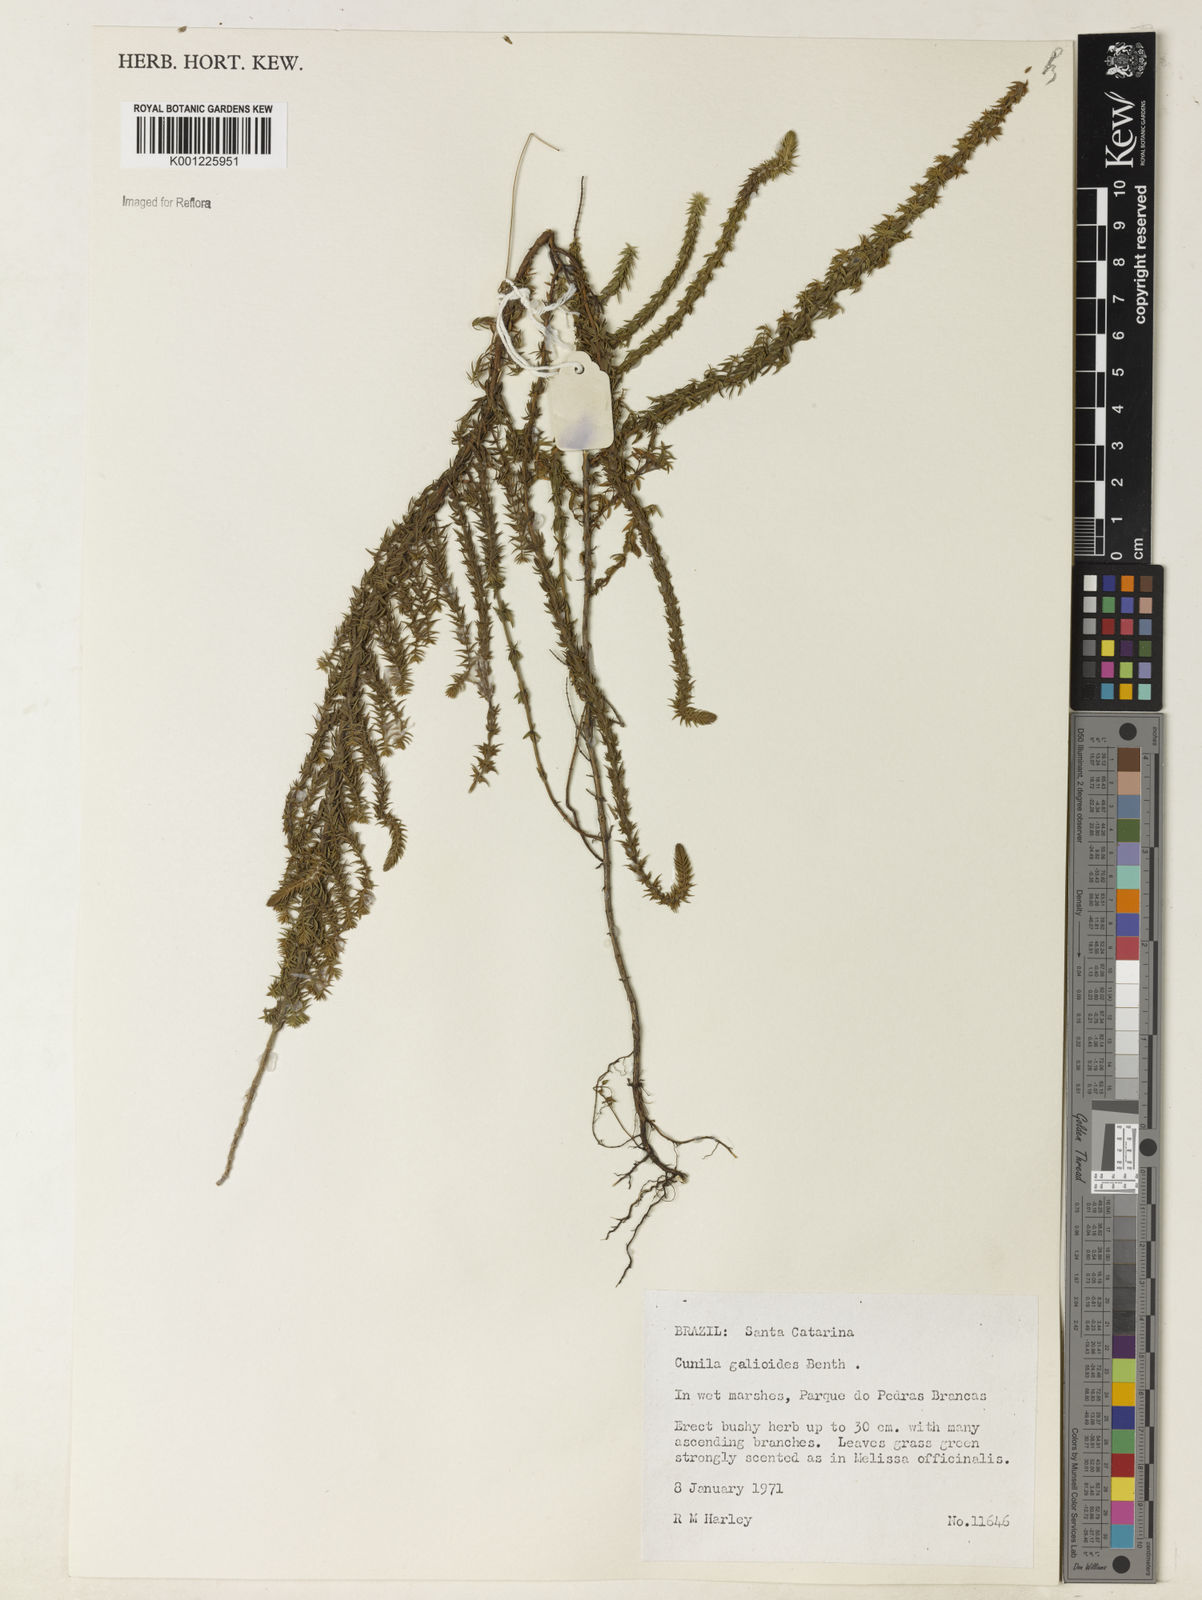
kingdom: Plantae
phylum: Tracheophyta
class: Magnoliopsida
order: Lamiales
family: Lamiaceae
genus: Cunila
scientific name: Cunila galioides
